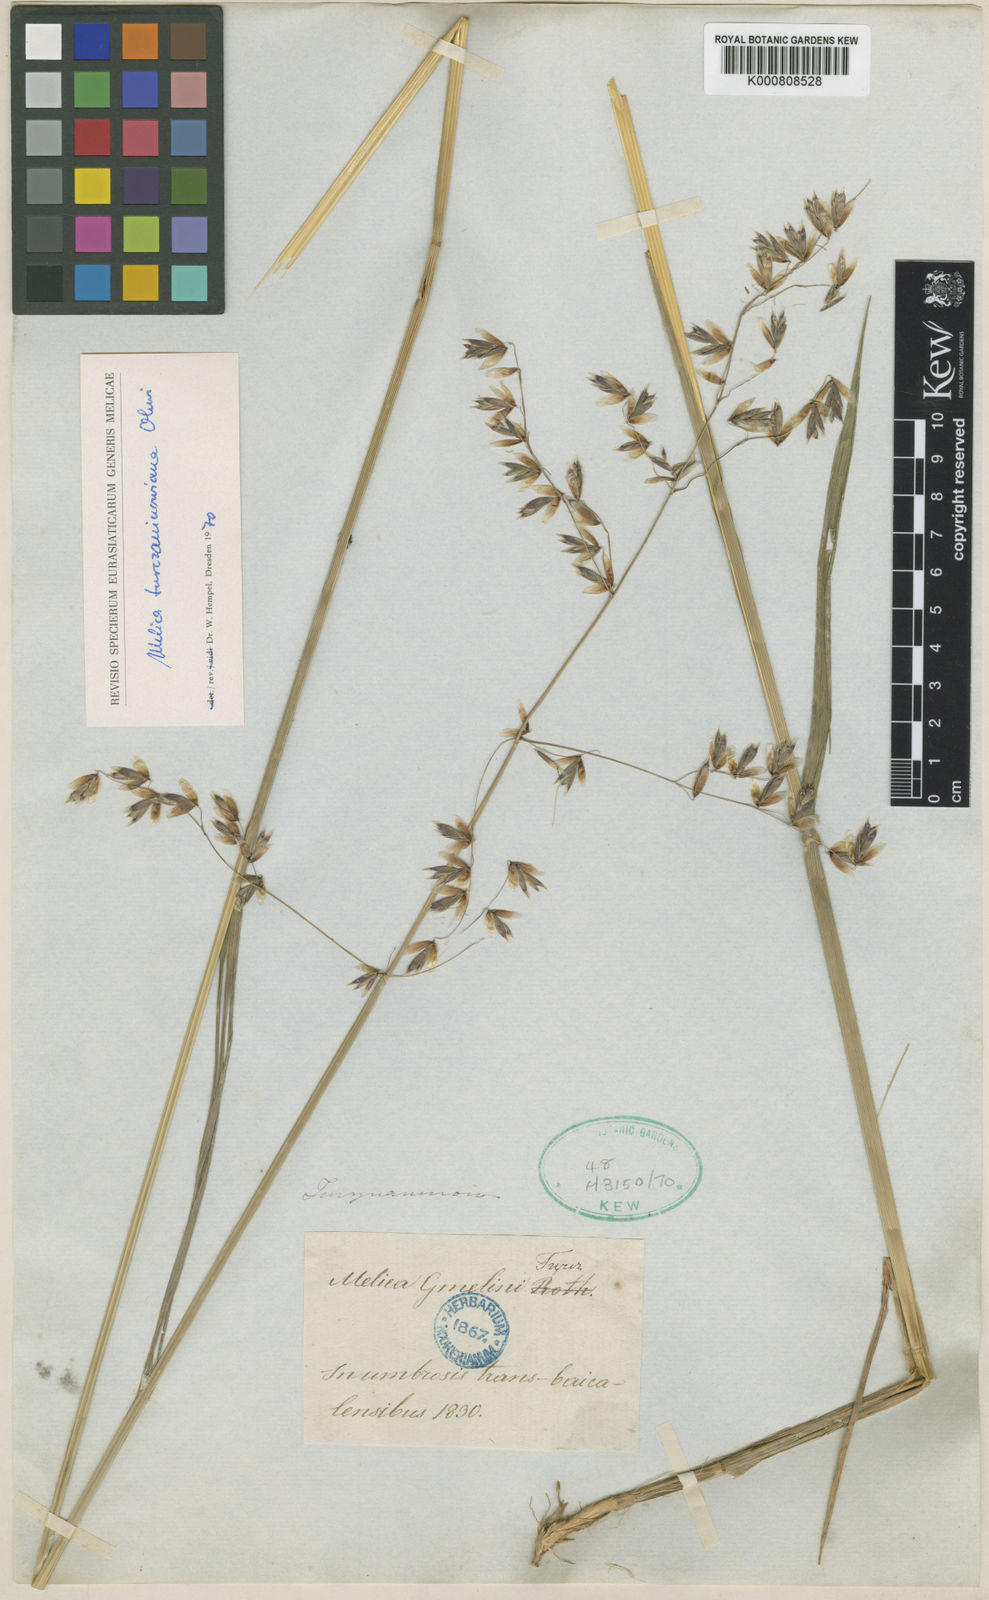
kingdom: Plantae
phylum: Tracheophyta
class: Liliopsida
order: Poales
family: Poaceae
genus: Melica
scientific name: Melica turczaninowiana
